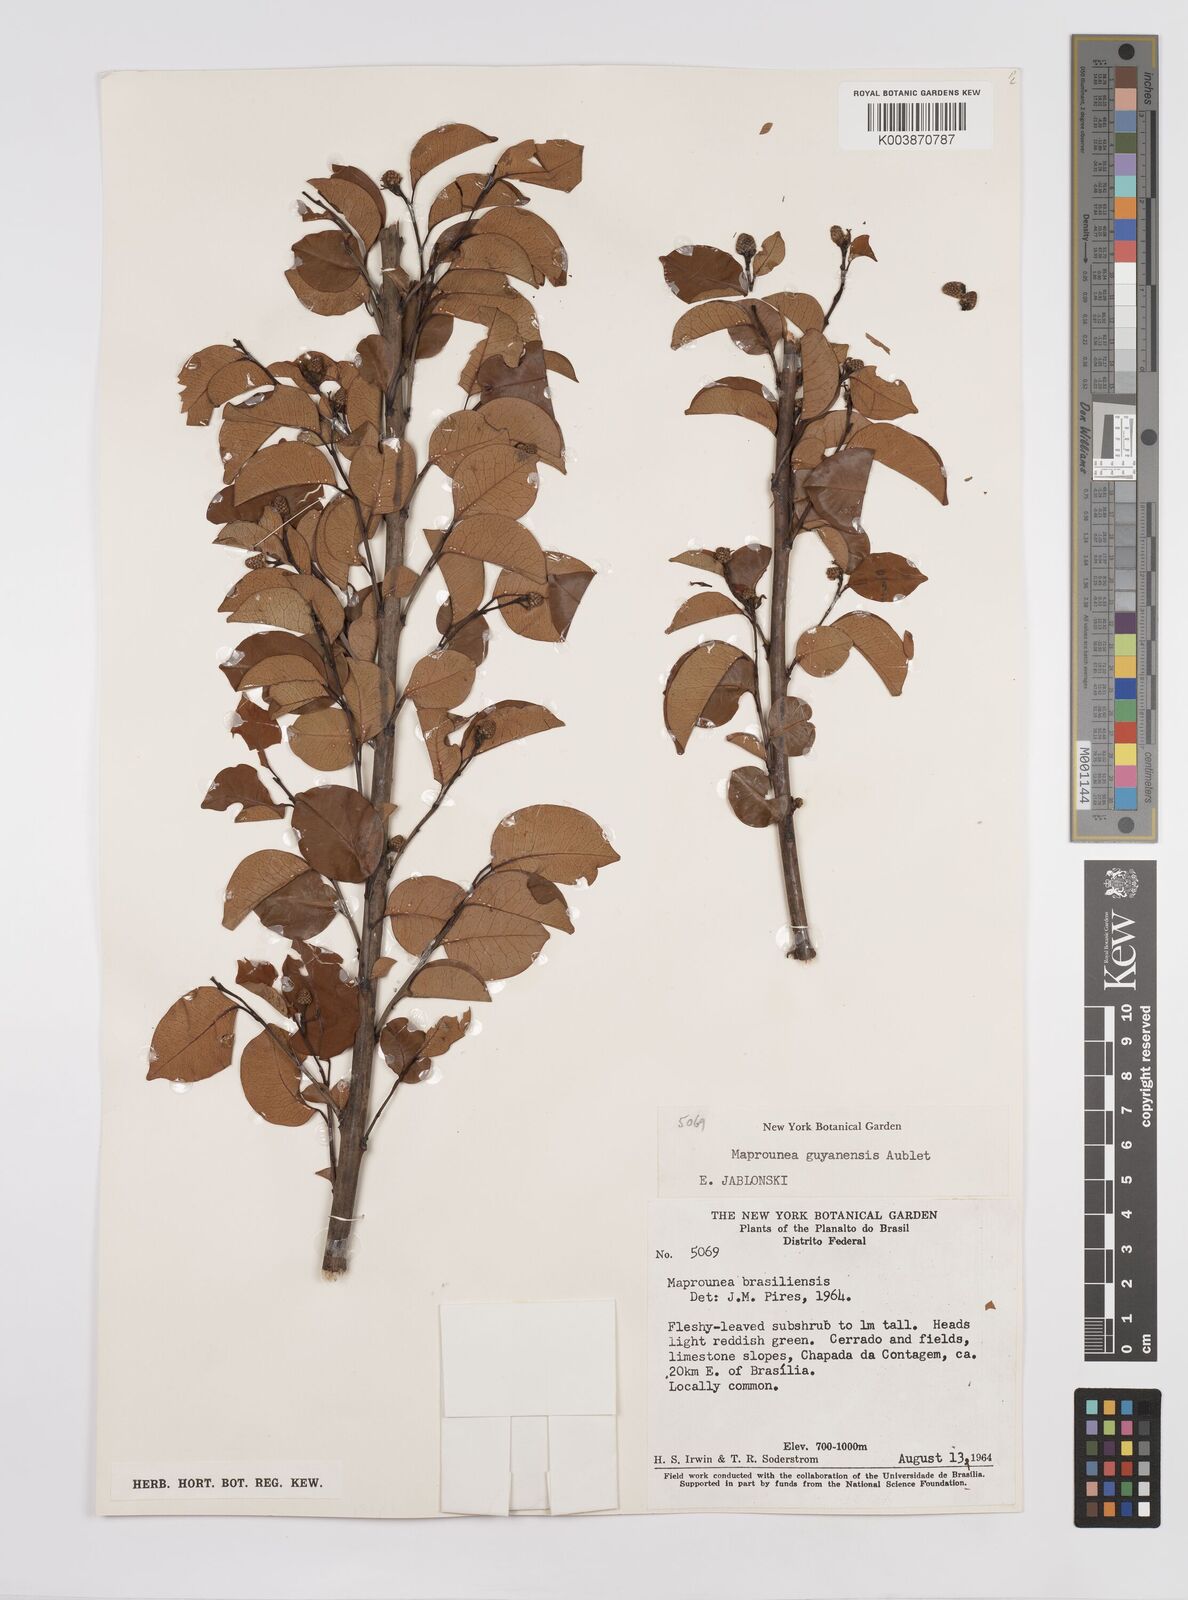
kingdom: Plantae
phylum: Tracheophyta
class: Magnoliopsida
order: Malpighiales
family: Euphorbiaceae
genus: Maprounea
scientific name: Maprounea guianensis
